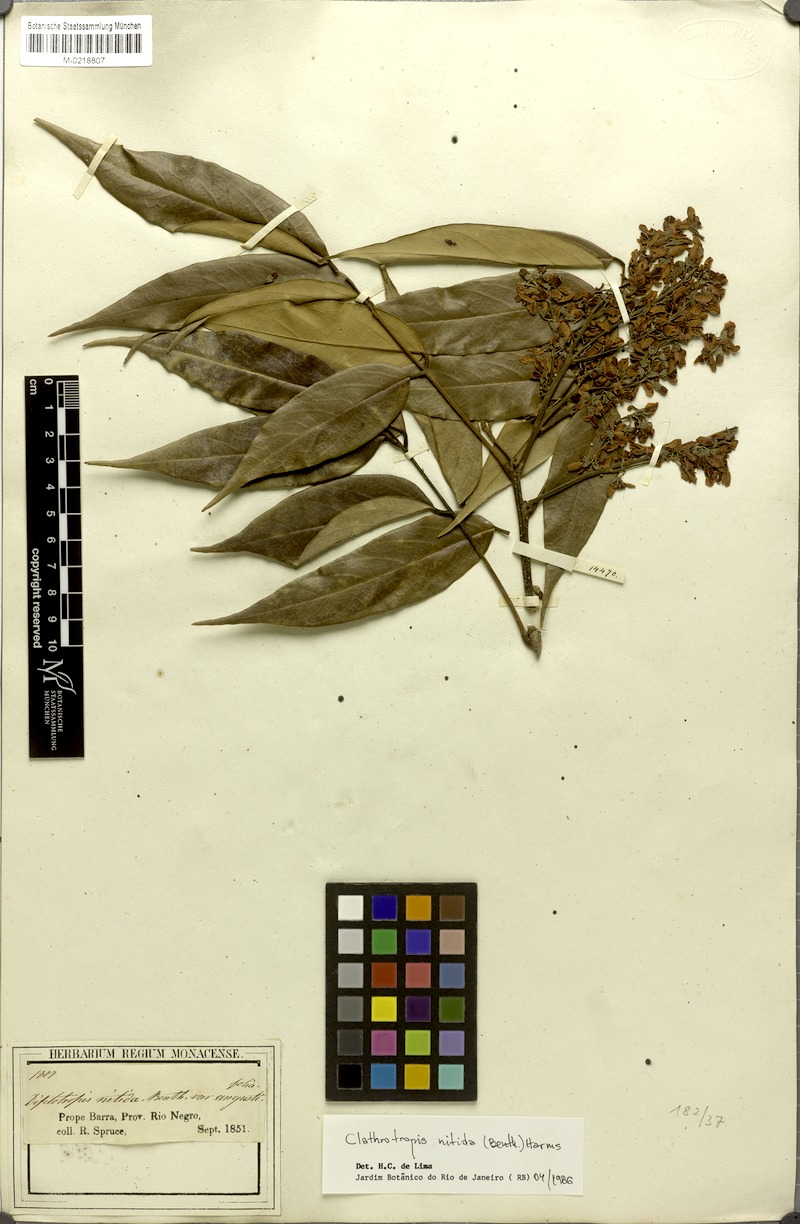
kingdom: Plantae
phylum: Tracheophyta
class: Magnoliopsida
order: Fabales
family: Fabaceae
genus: Clathrotropis
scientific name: Clathrotropis nitida
